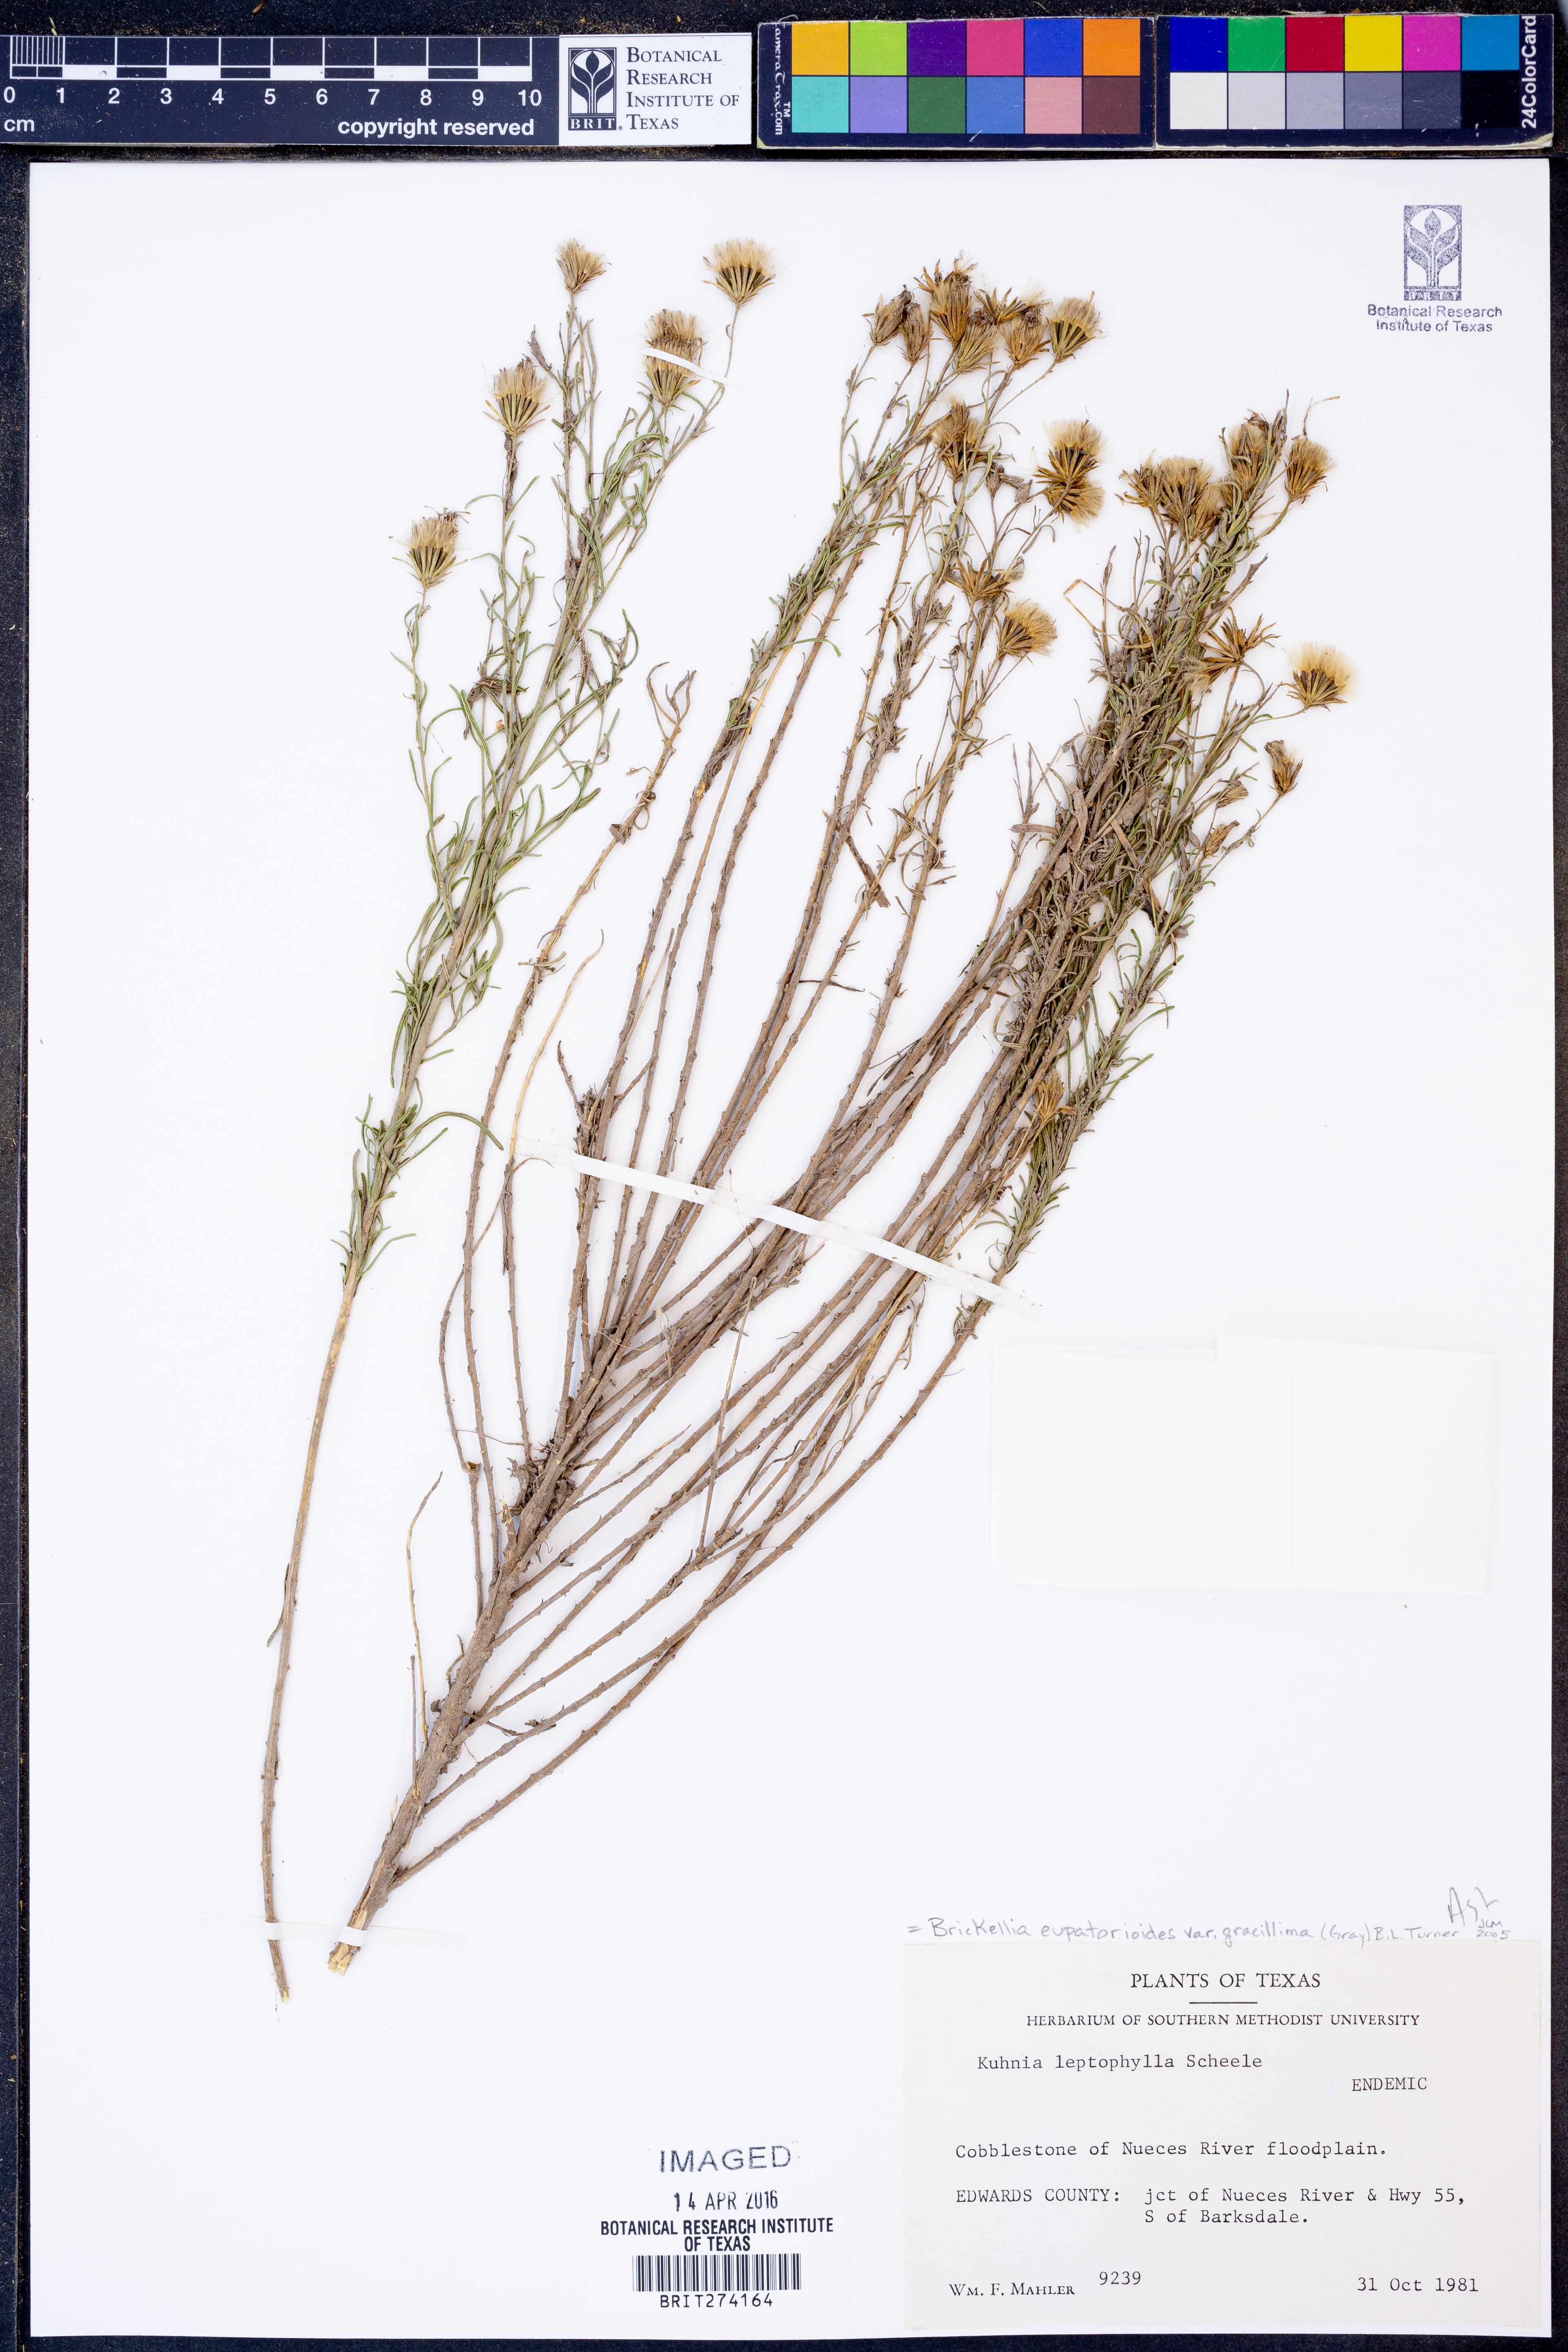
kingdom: Plantae
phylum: Tracheophyta
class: Magnoliopsida
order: Asterales
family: Asteraceae
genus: Brickellia
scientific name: Brickellia leptophylla
